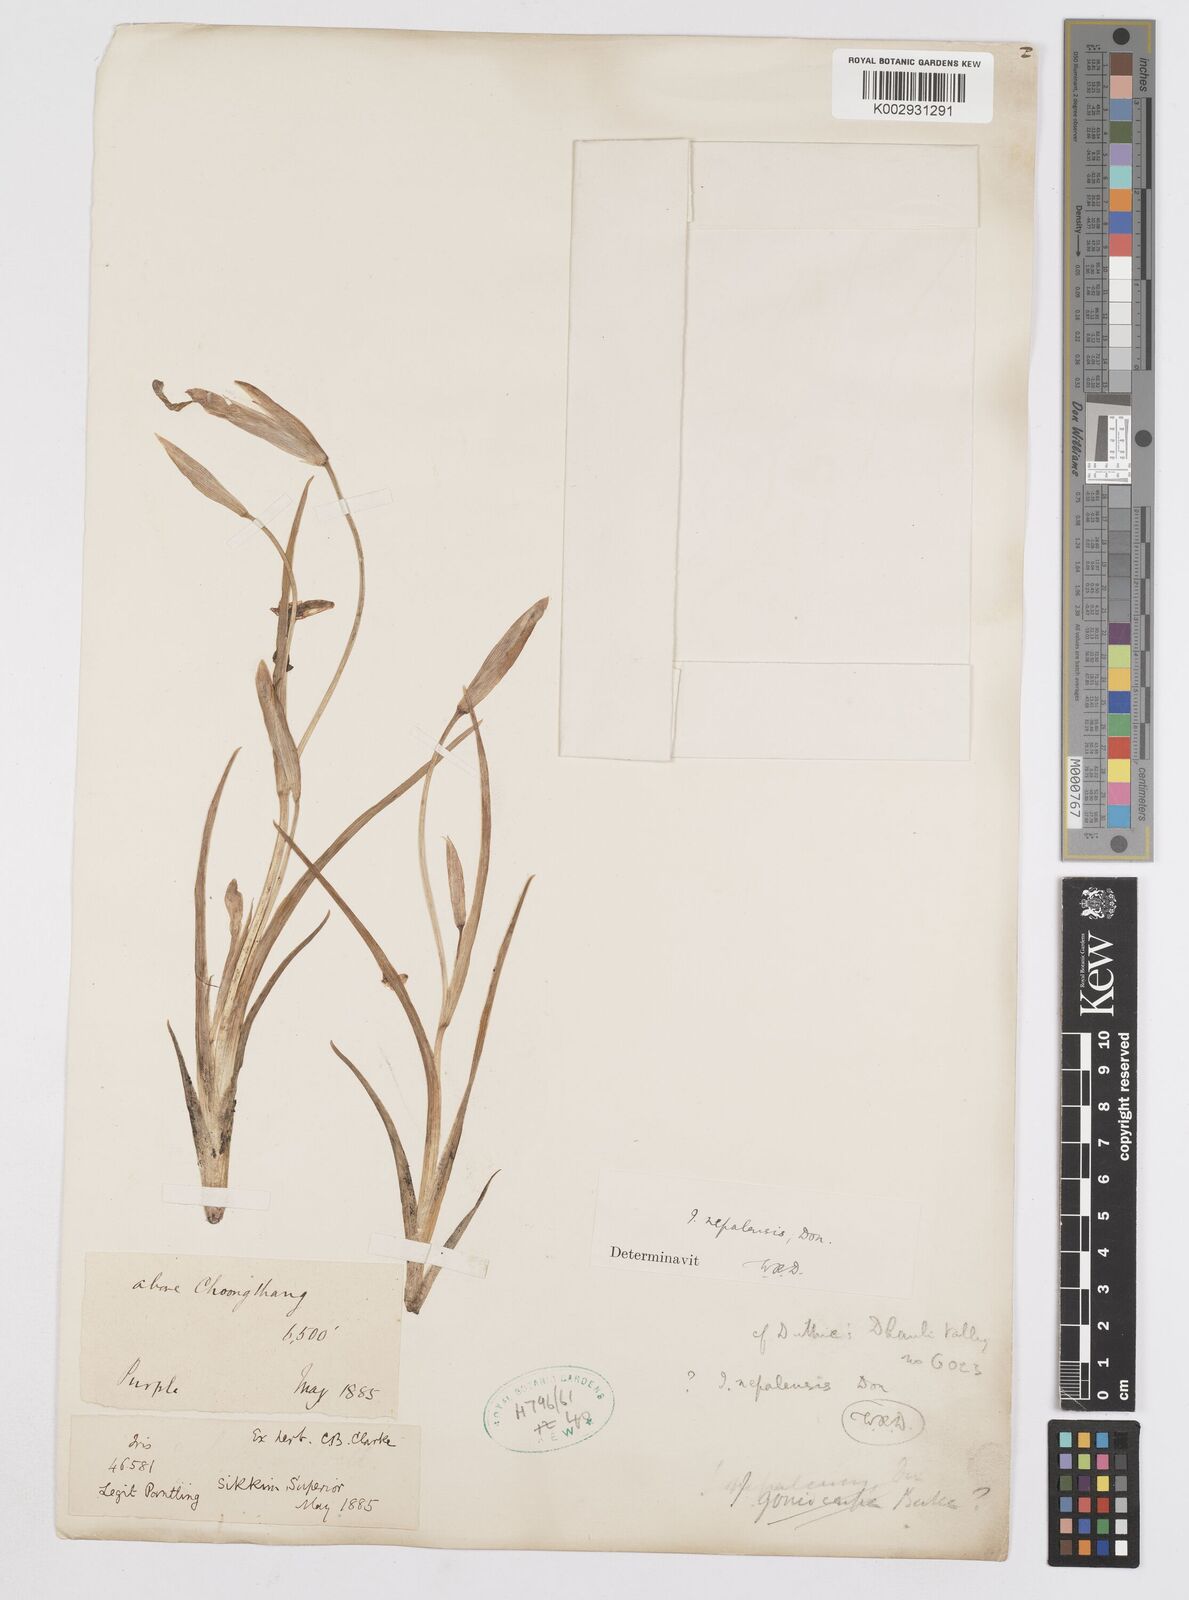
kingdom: Plantae
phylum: Tracheophyta
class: Liliopsida
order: Asparagales
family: Iridaceae
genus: Iris
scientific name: Iris decora
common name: Nepal iris
